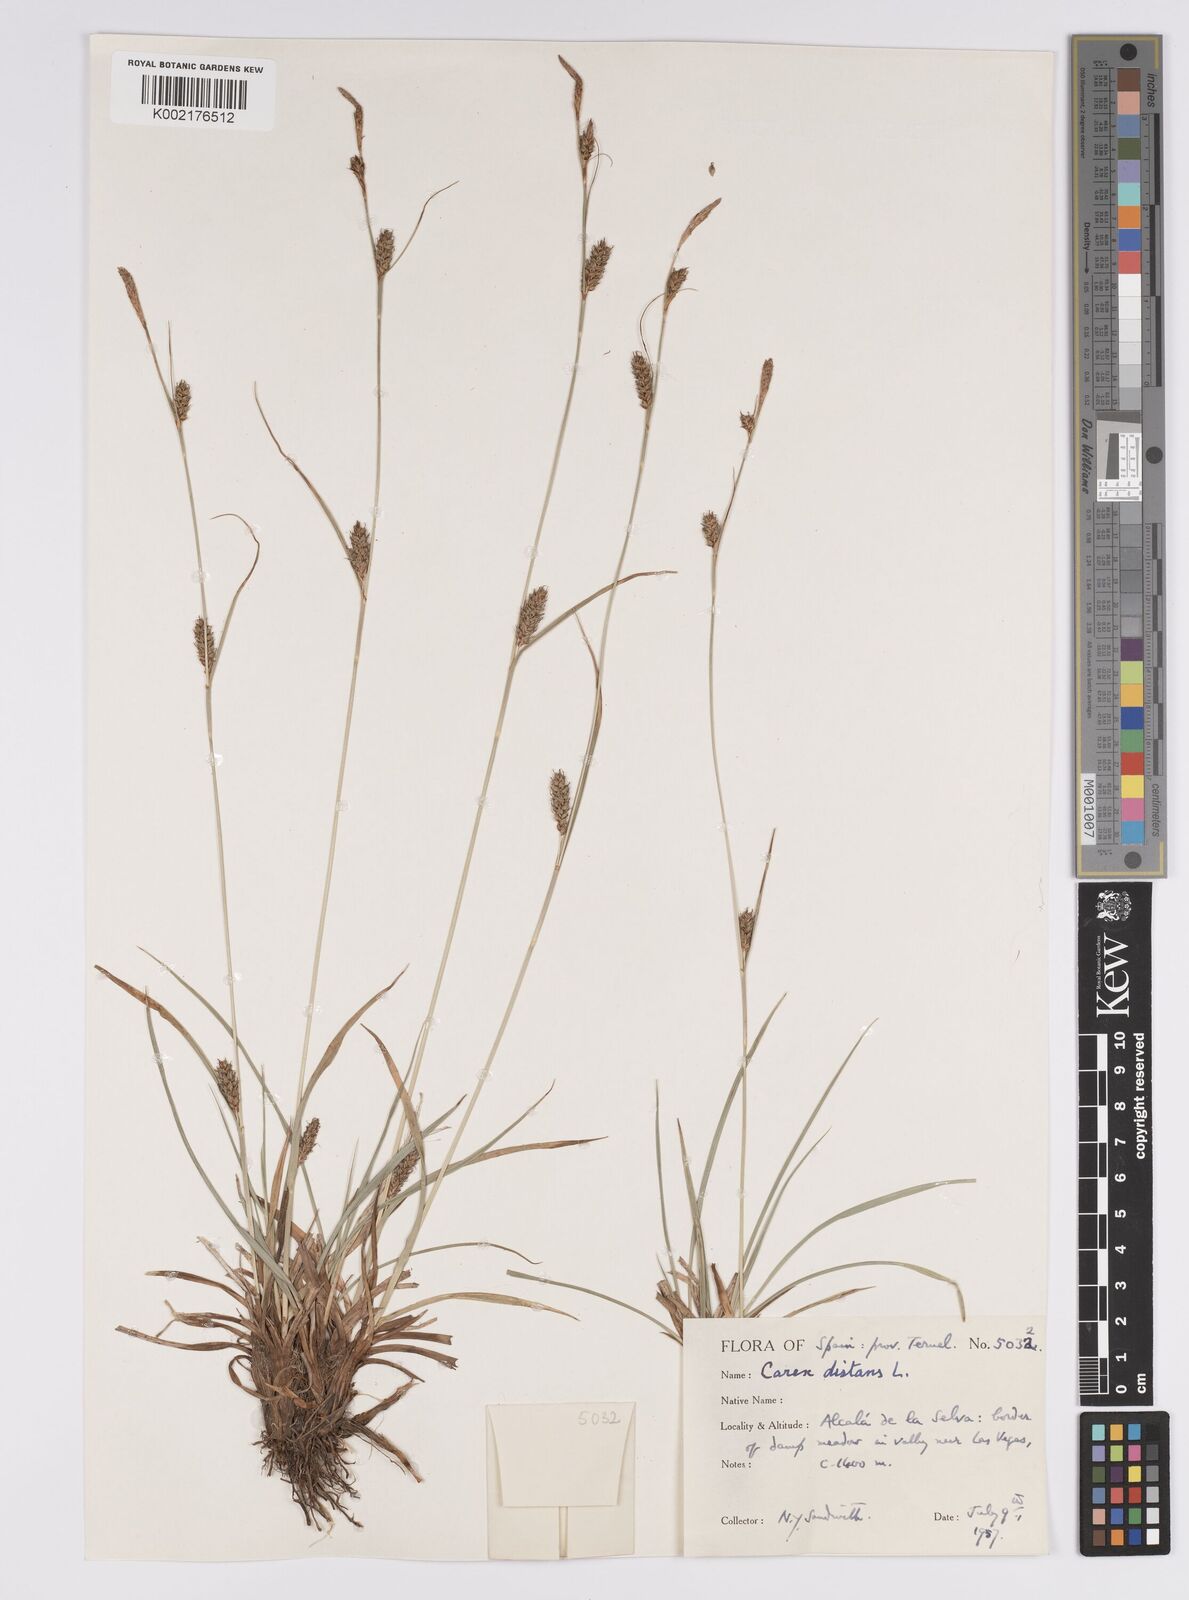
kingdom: Plantae
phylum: Tracheophyta
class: Liliopsida
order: Poales
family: Cyperaceae
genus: Carex
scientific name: Carex distans
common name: Distant sedge
